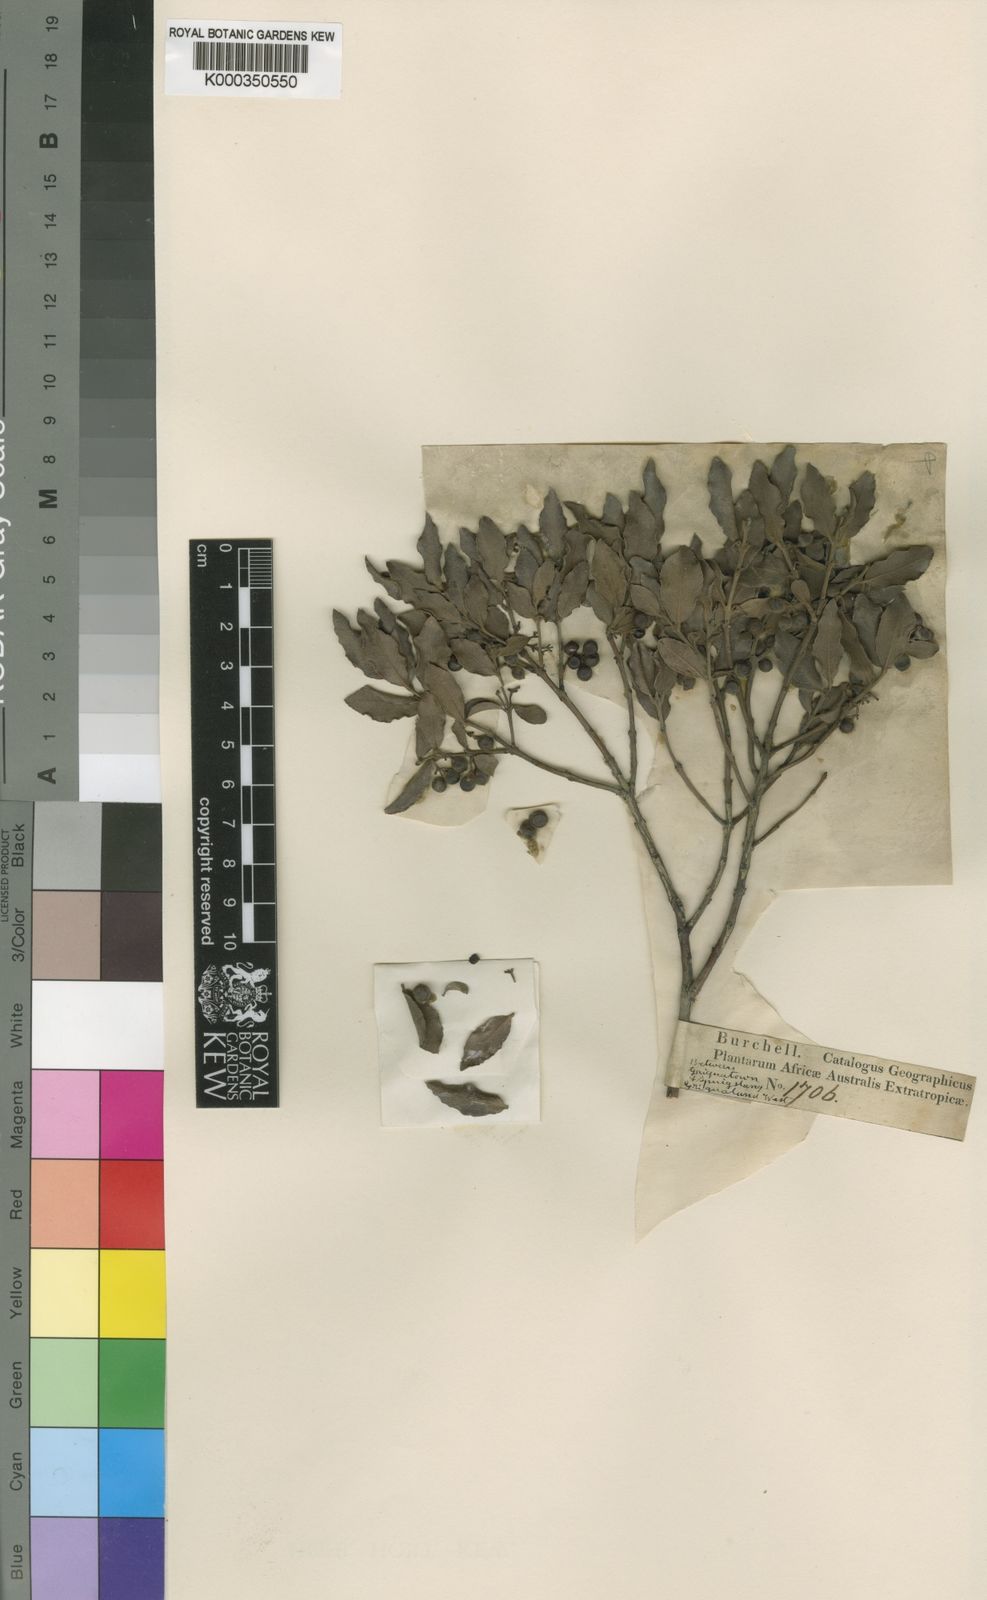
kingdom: Plantae
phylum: Tracheophyta
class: Magnoliopsida
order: Ericales
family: Ebenaceae
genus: Euclea
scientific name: Euclea
